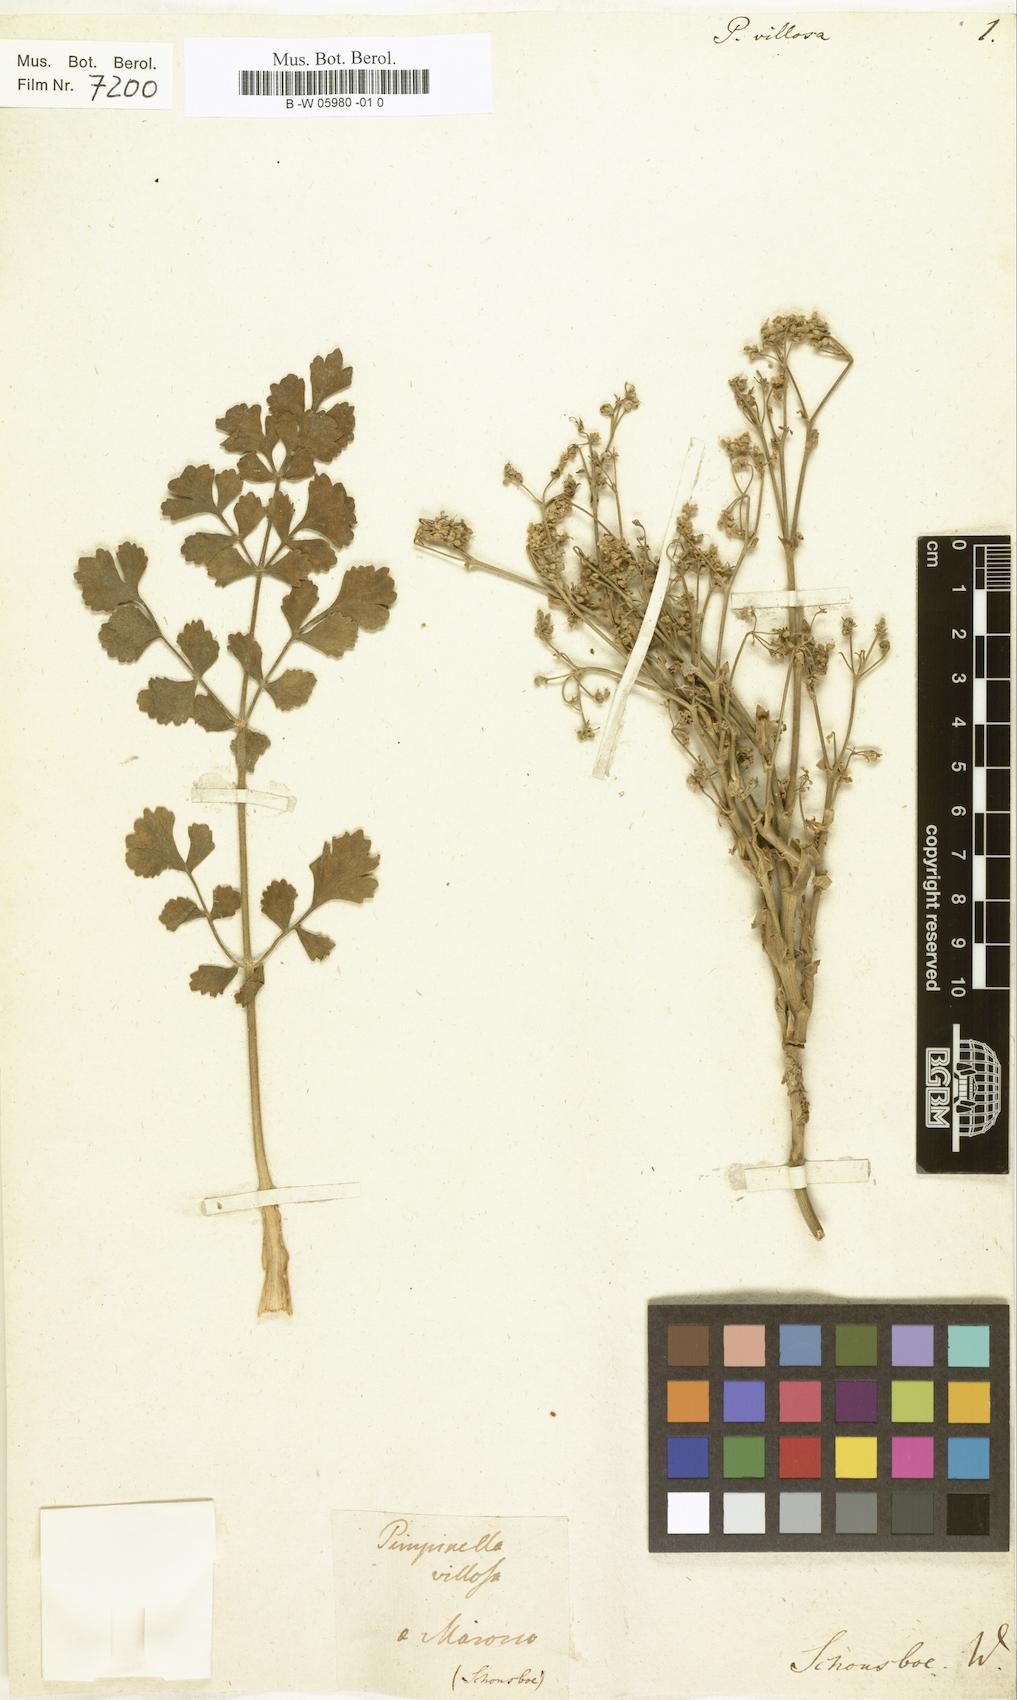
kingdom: Plantae
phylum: Tracheophyta
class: Magnoliopsida
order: Apiales
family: Apiaceae
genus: Pimpinella
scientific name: Pimpinella villosa
